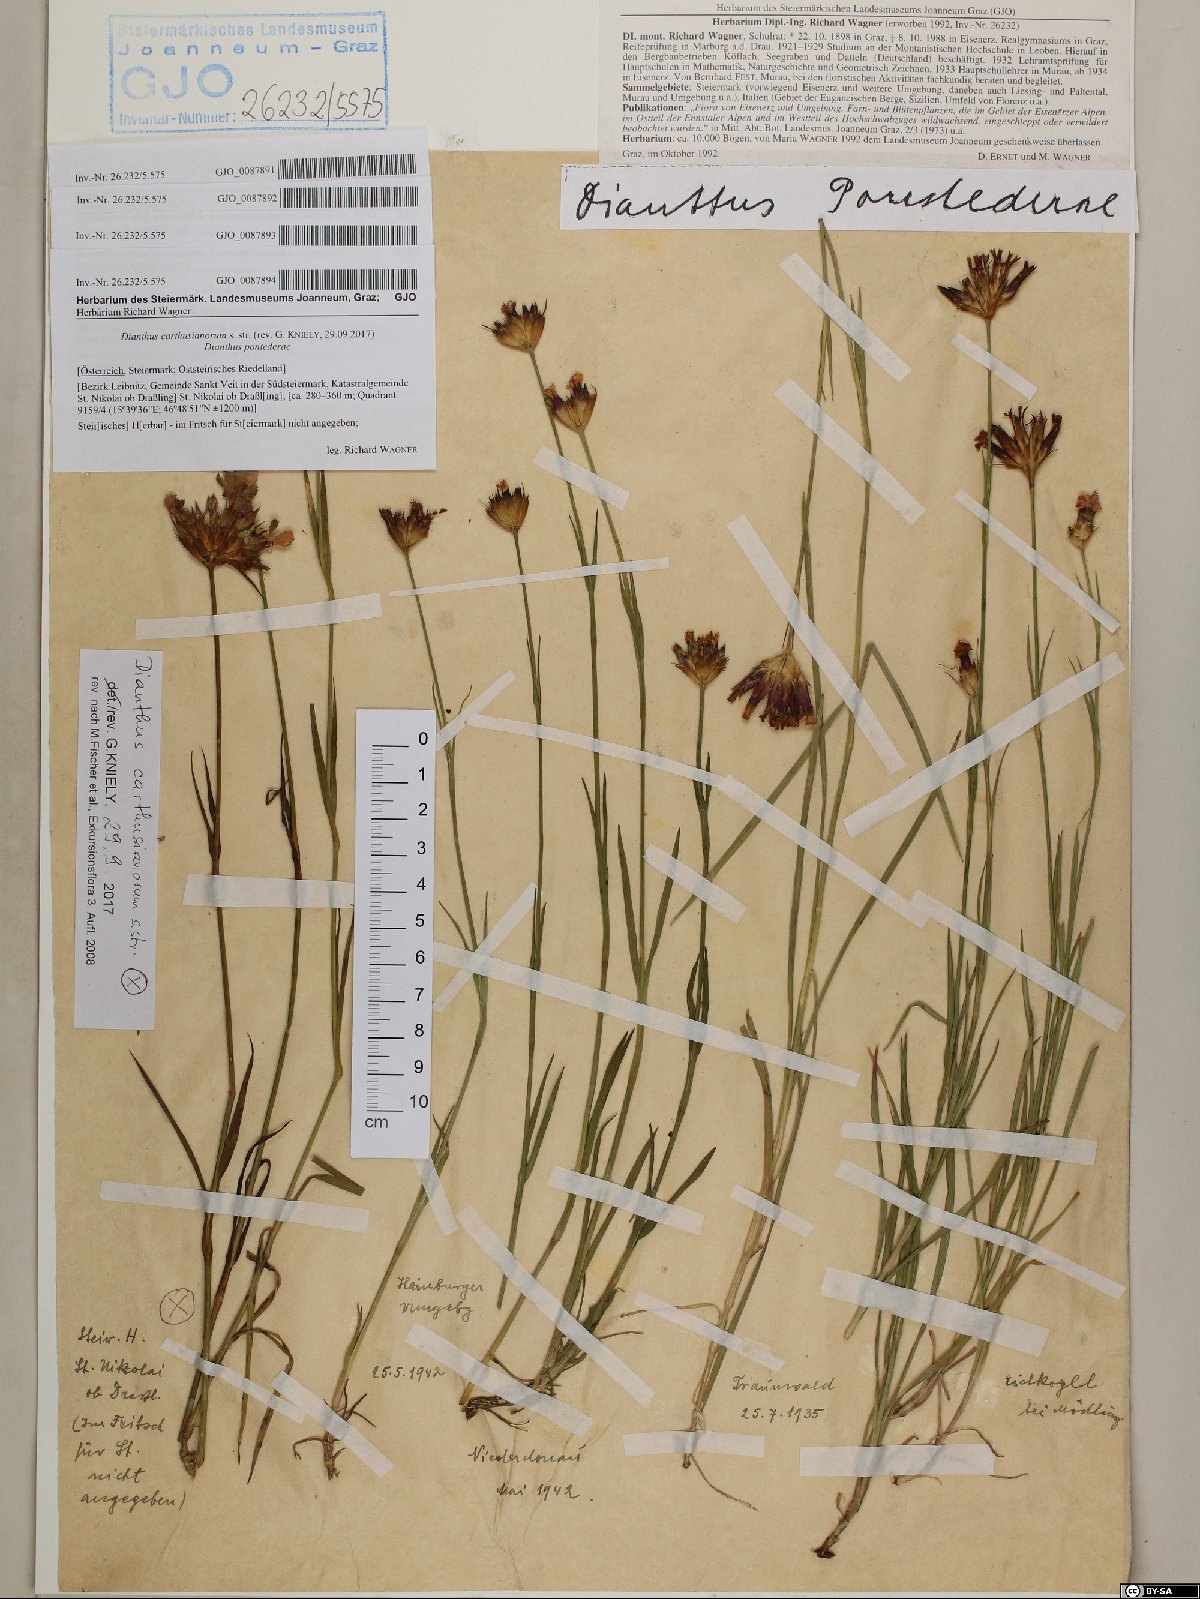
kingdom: Plantae
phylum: Tracheophyta
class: Magnoliopsida
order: Caryophyllales
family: Caryophyllaceae
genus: Dianthus
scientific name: Dianthus pontederae
